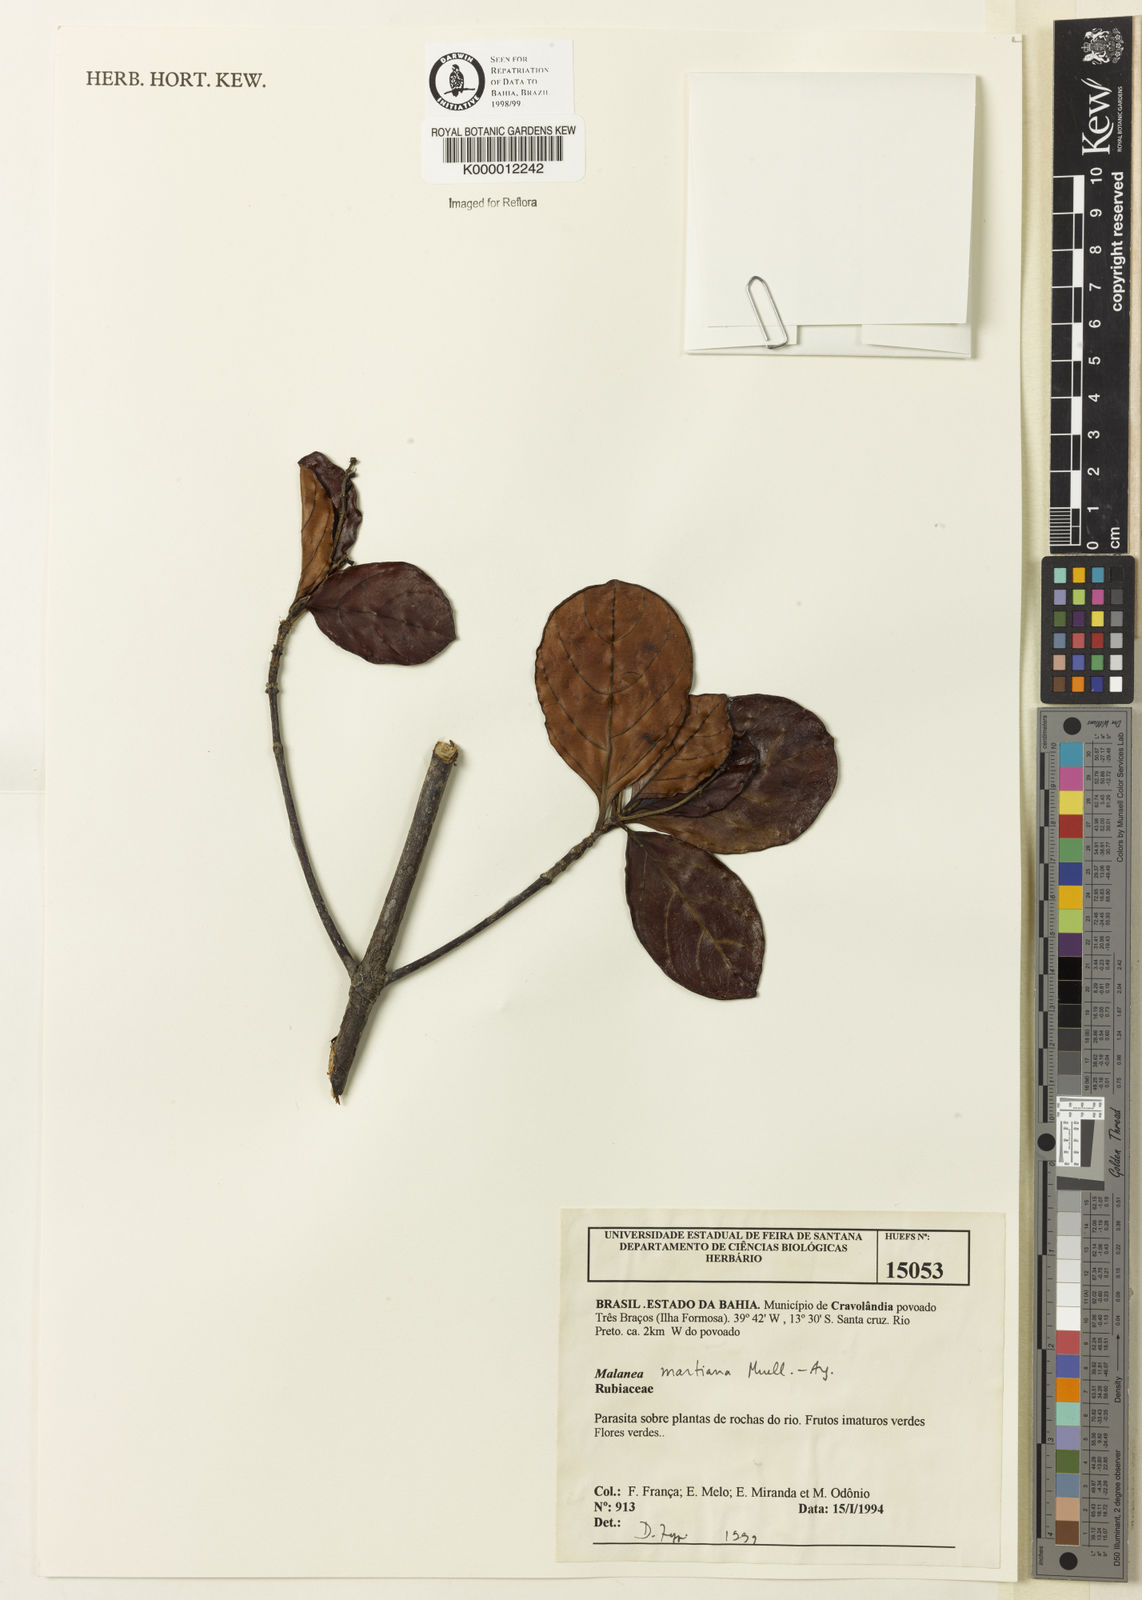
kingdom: Plantae
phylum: Tracheophyta
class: Magnoliopsida
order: Gentianales
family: Rubiaceae
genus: Malanea
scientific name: Malanea martiana
